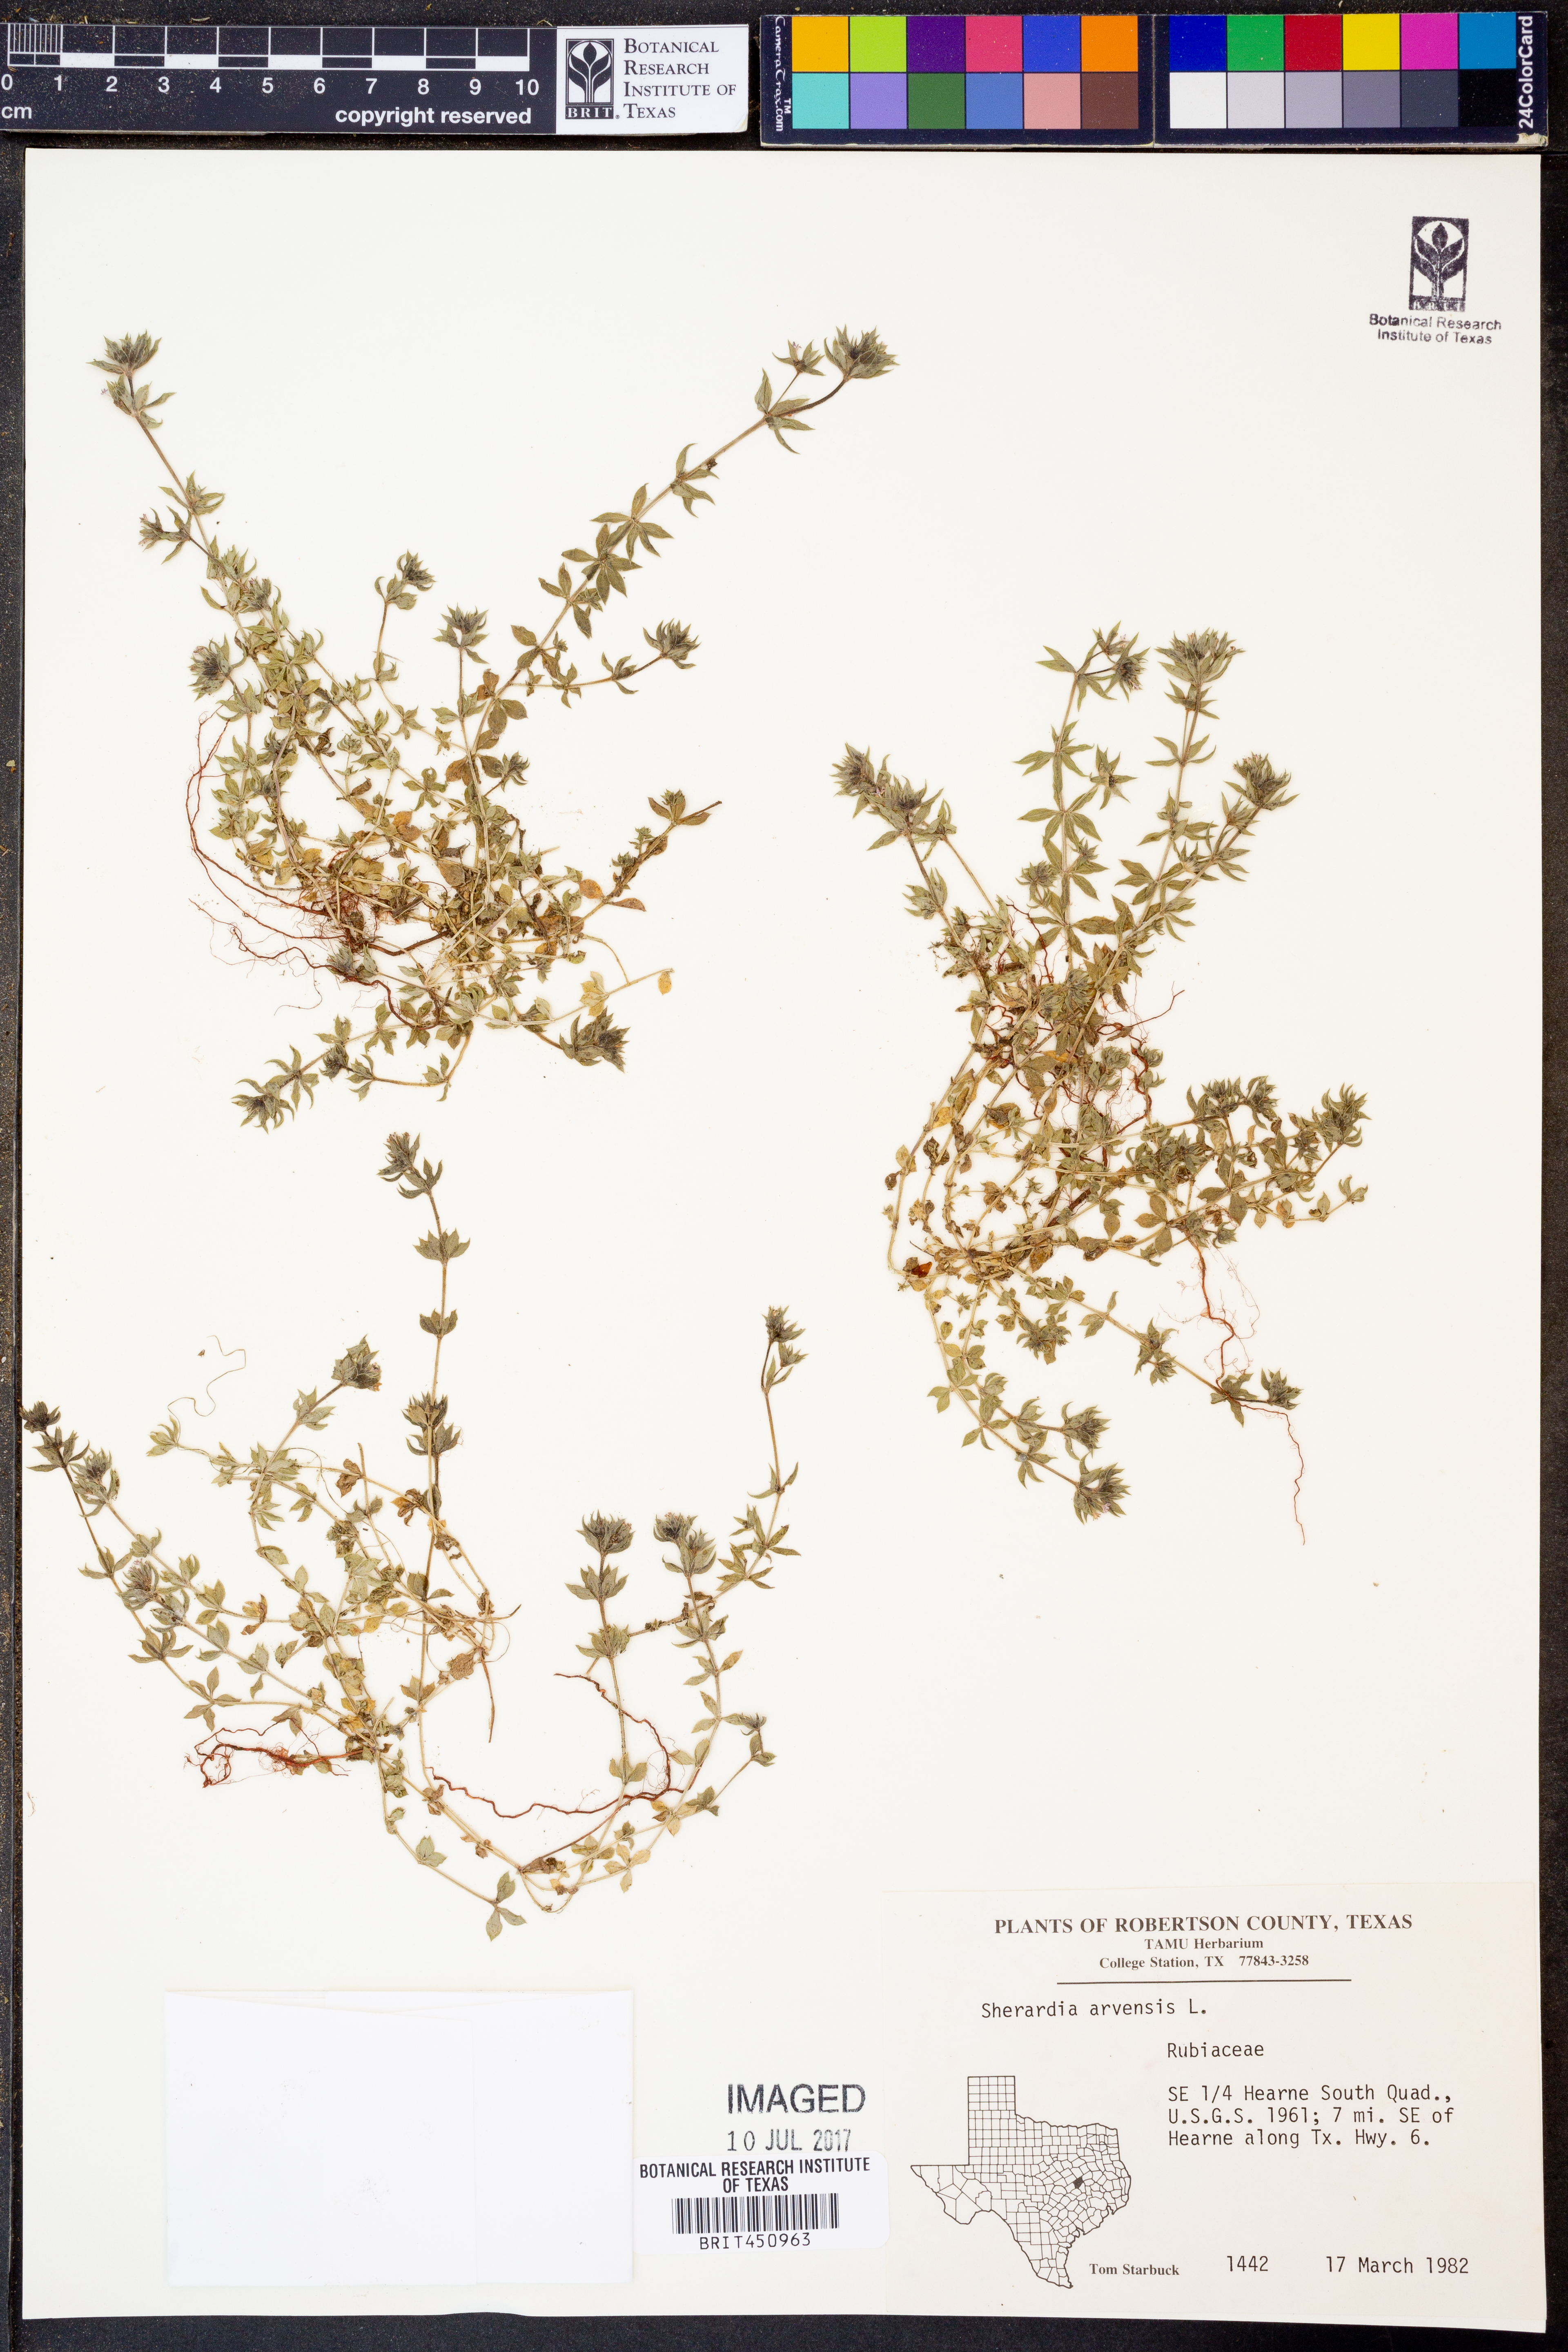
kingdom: Plantae
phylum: Tracheophyta
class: Magnoliopsida
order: Gentianales
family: Rubiaceae
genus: Sherardia
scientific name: Sherardia arvensis
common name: Field madder
